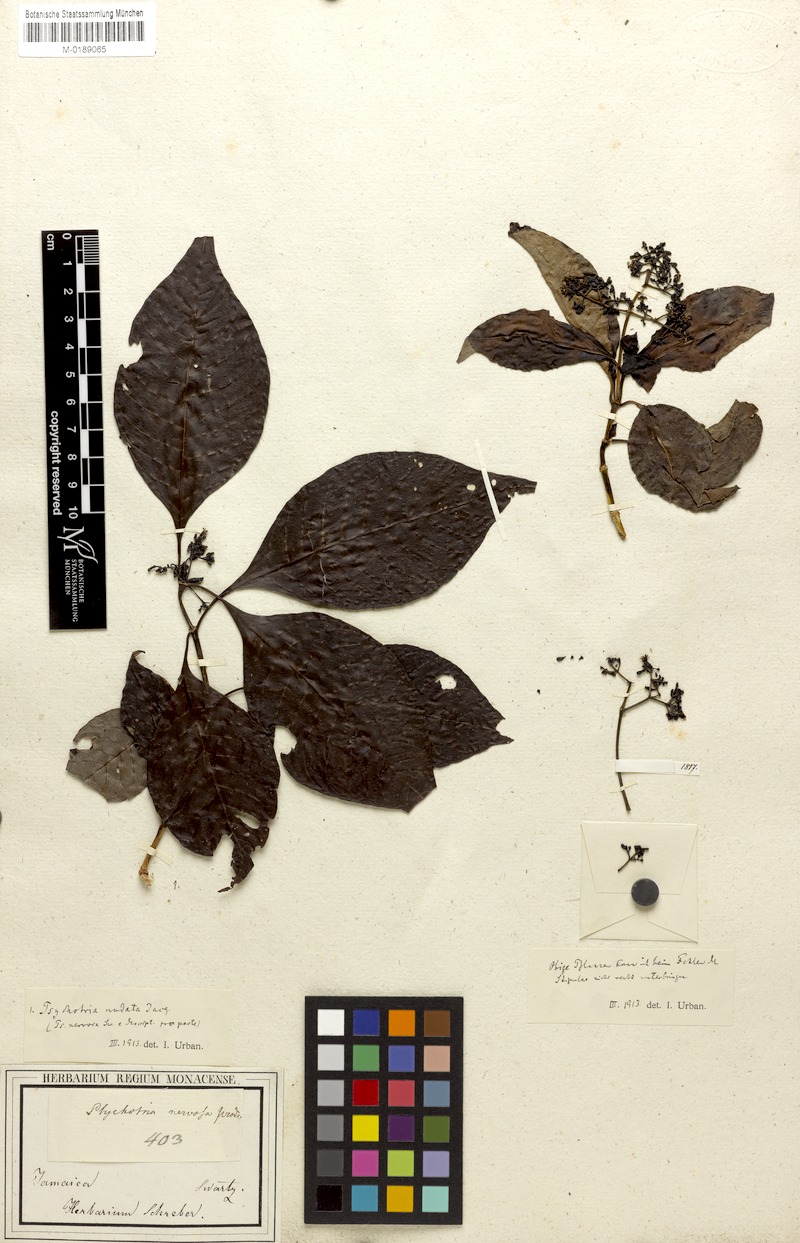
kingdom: Plantae
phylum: Tracheophyta
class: Magnoliopsida
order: Gentianales
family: Rubiaceae
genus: Psychotria
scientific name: Psychotria nervosa
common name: Bastard cankerberry
